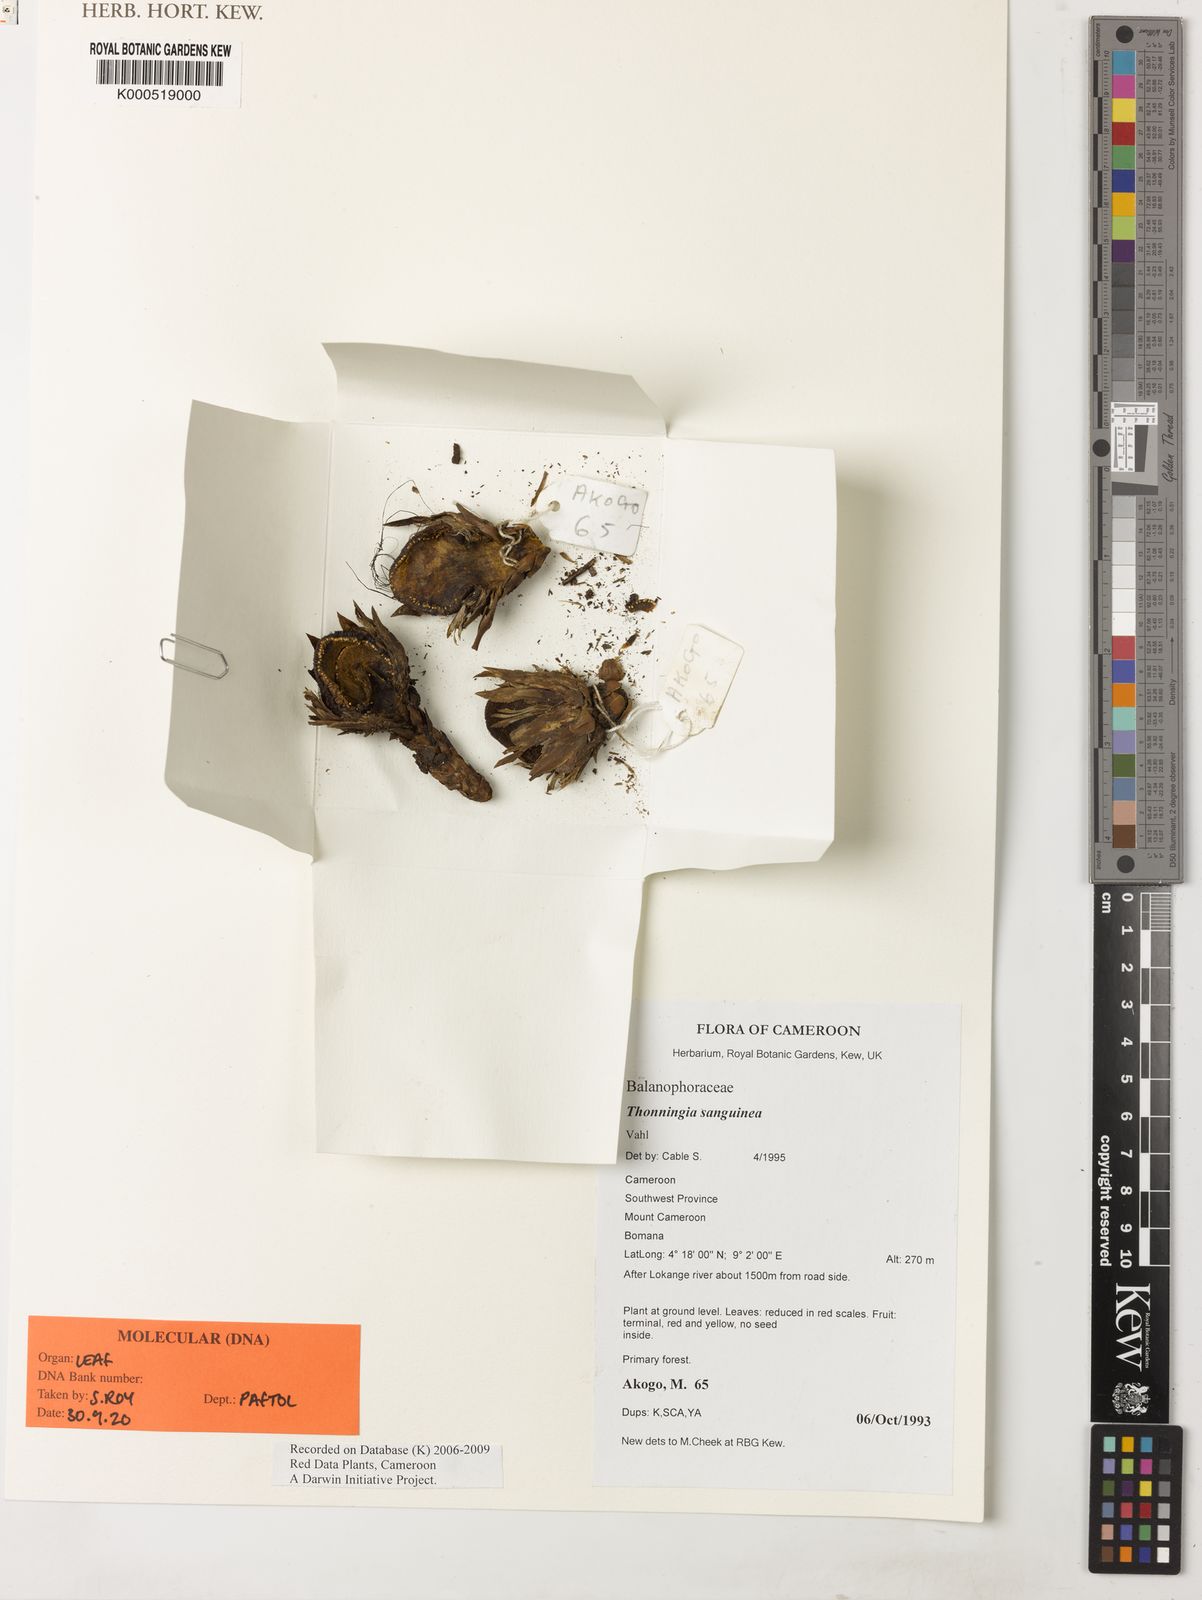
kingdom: Plantae
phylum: Tracheophyta
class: Magnoliopsida
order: Santalales
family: Balanophoraceae
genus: Thonningia
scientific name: Thonningia sanguinea
